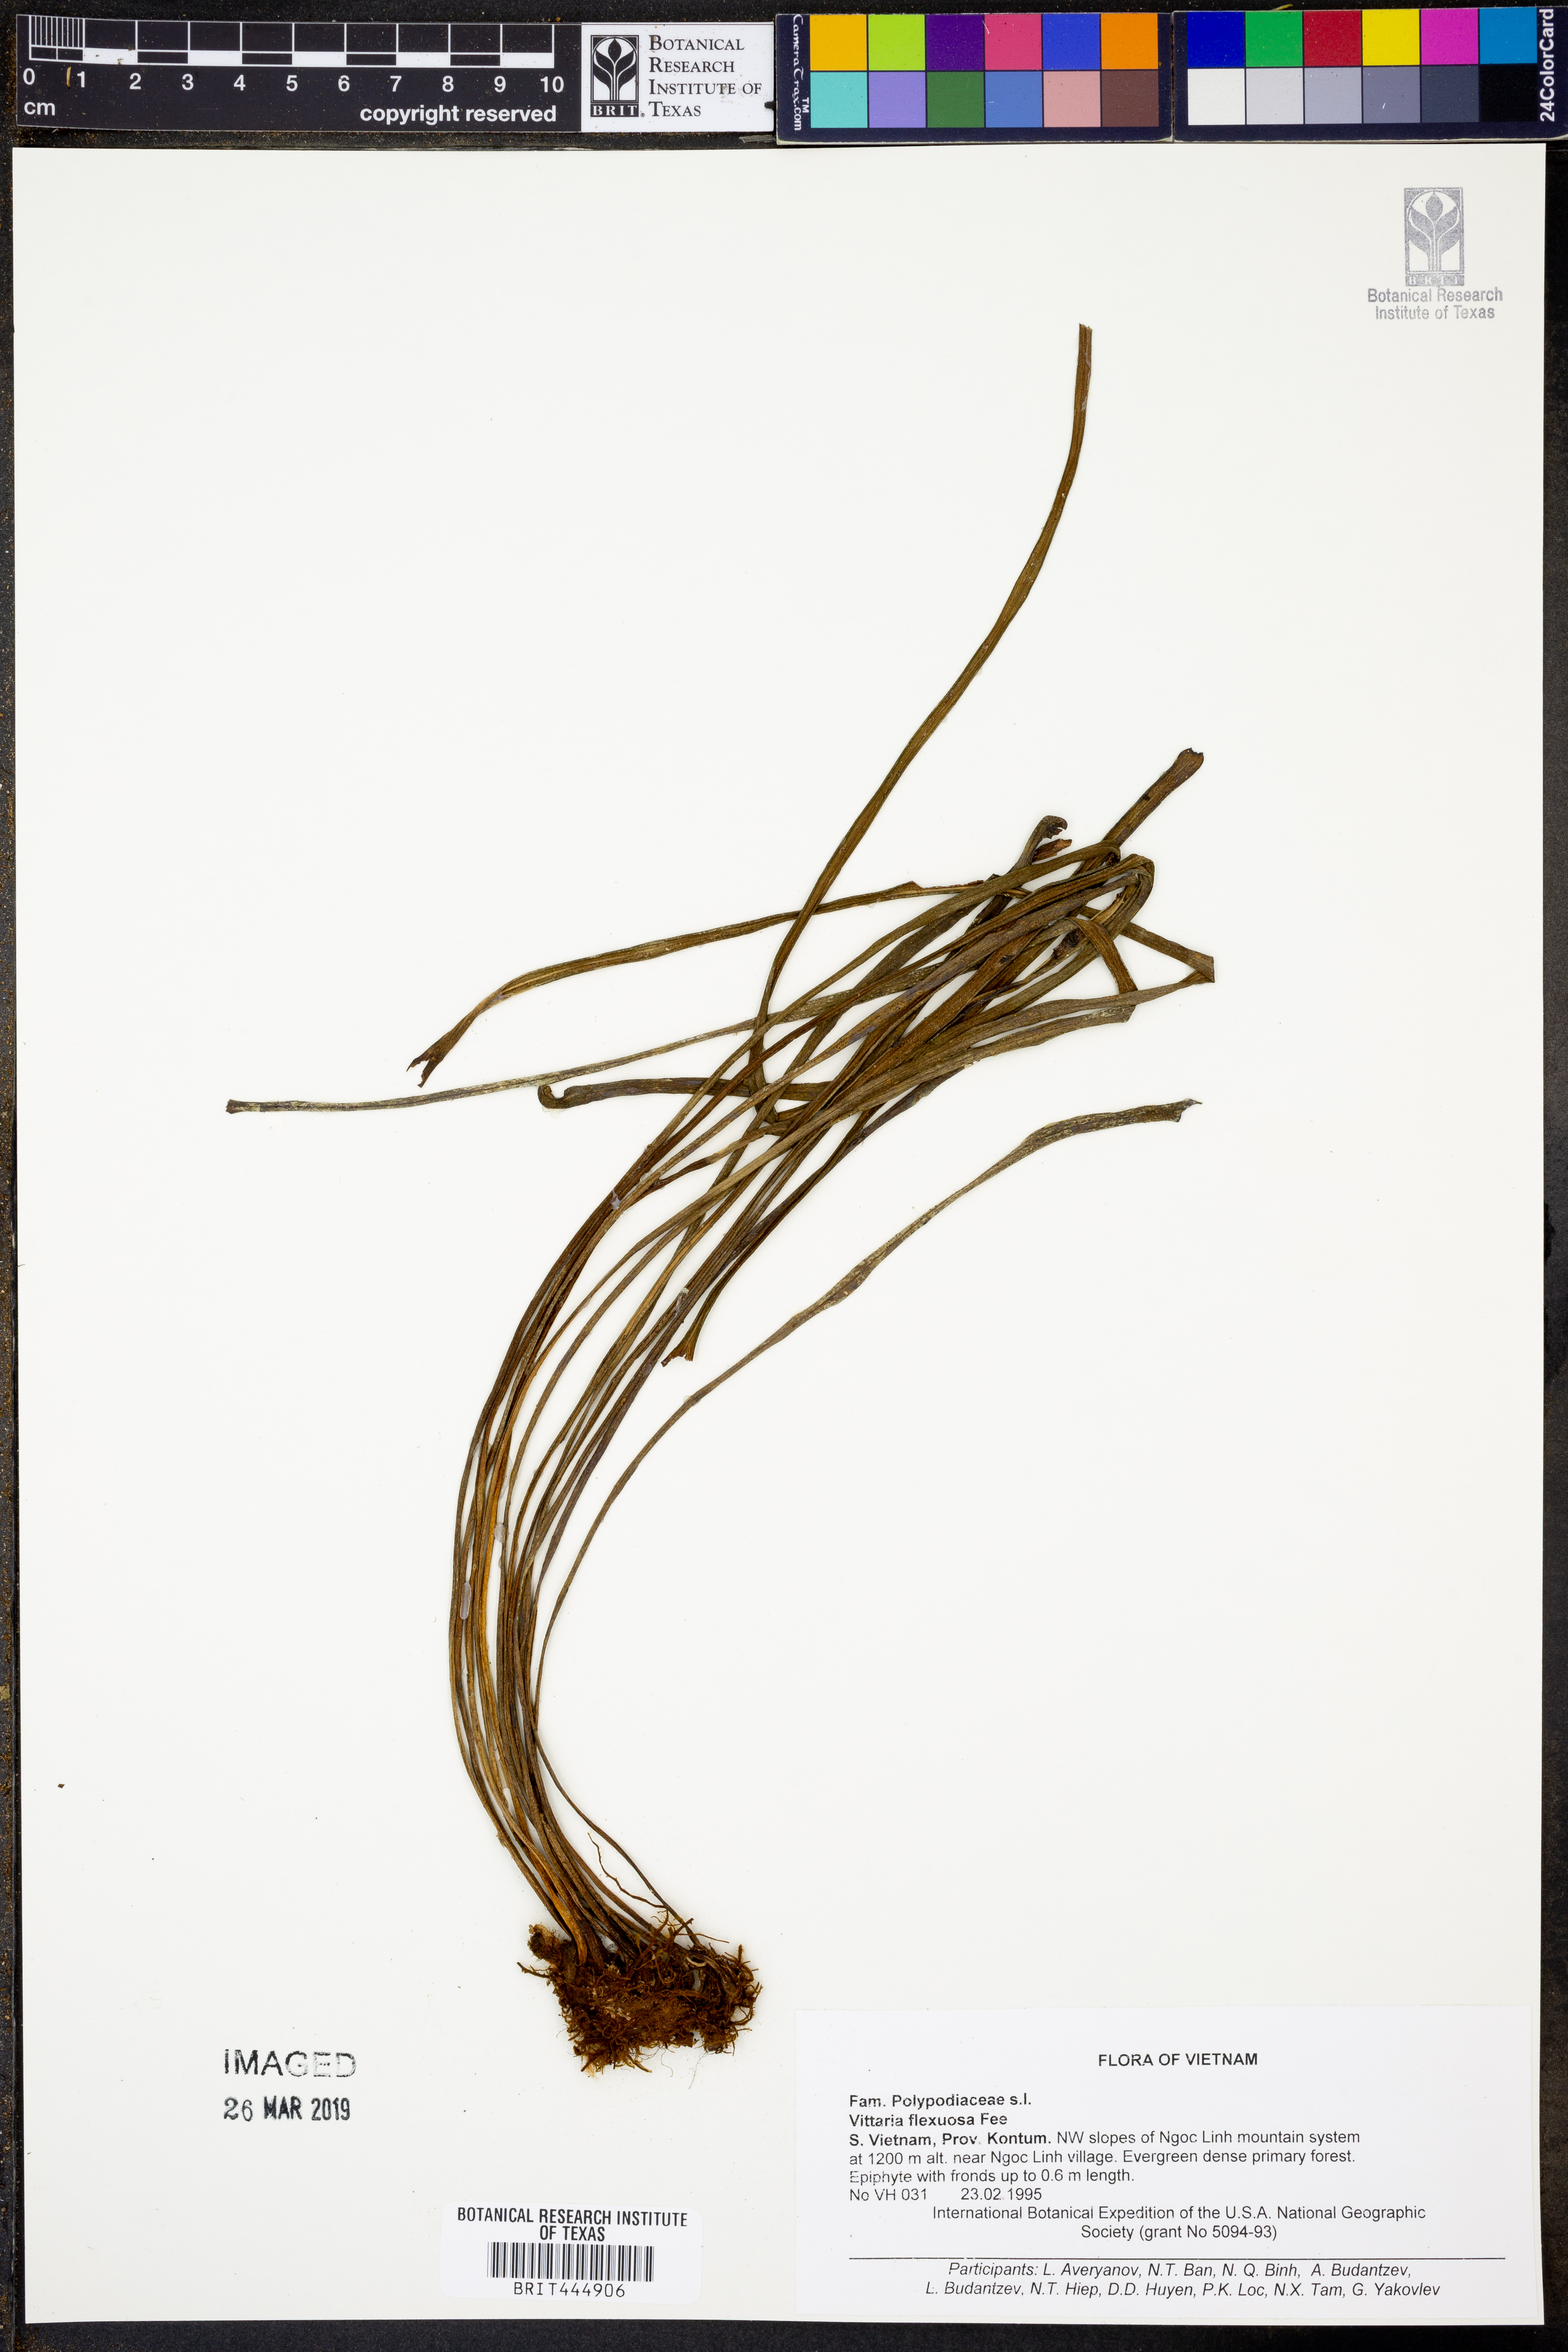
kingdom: Plantae
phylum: Tracheophyta
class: Polypodiopsida
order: Polypodiales
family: Pteridaceae
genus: Haplopteris
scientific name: Haplopteris flexuosa
